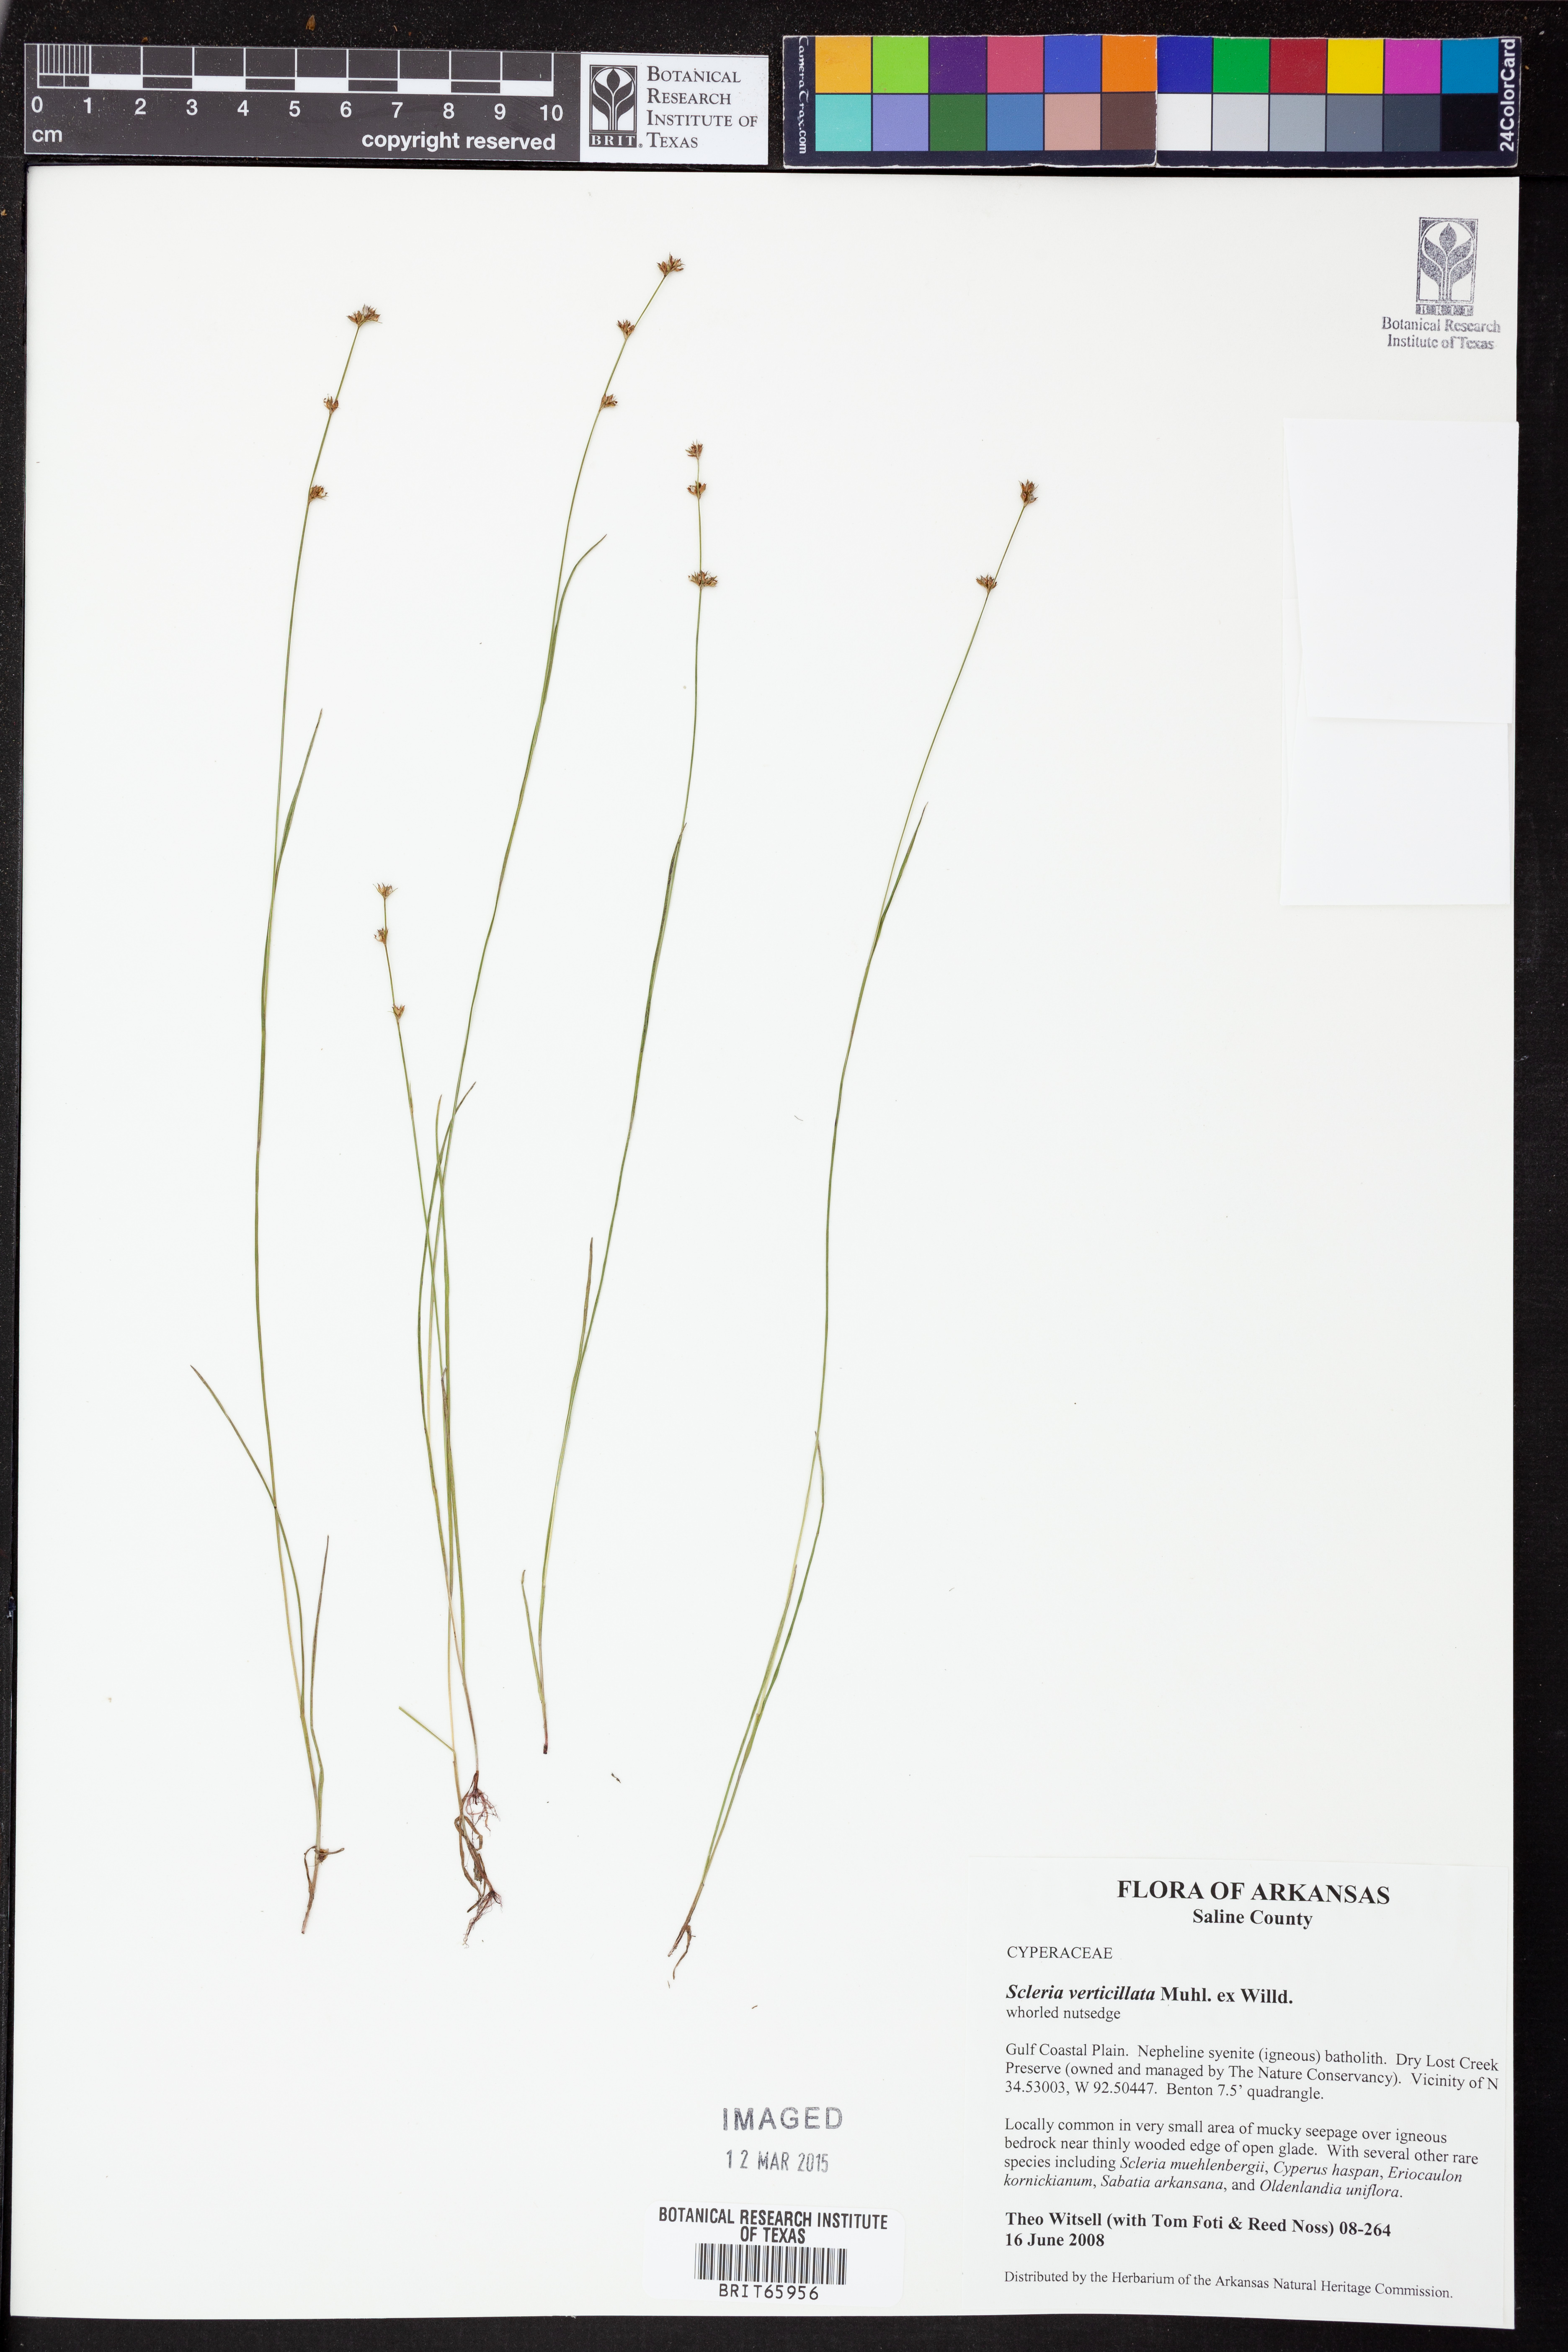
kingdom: Plantae
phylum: Tracheophyta
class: Liliopsida
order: Poales
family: Cyperaceae
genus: Scleria
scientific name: Scleria verticillata
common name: Low nutrush
